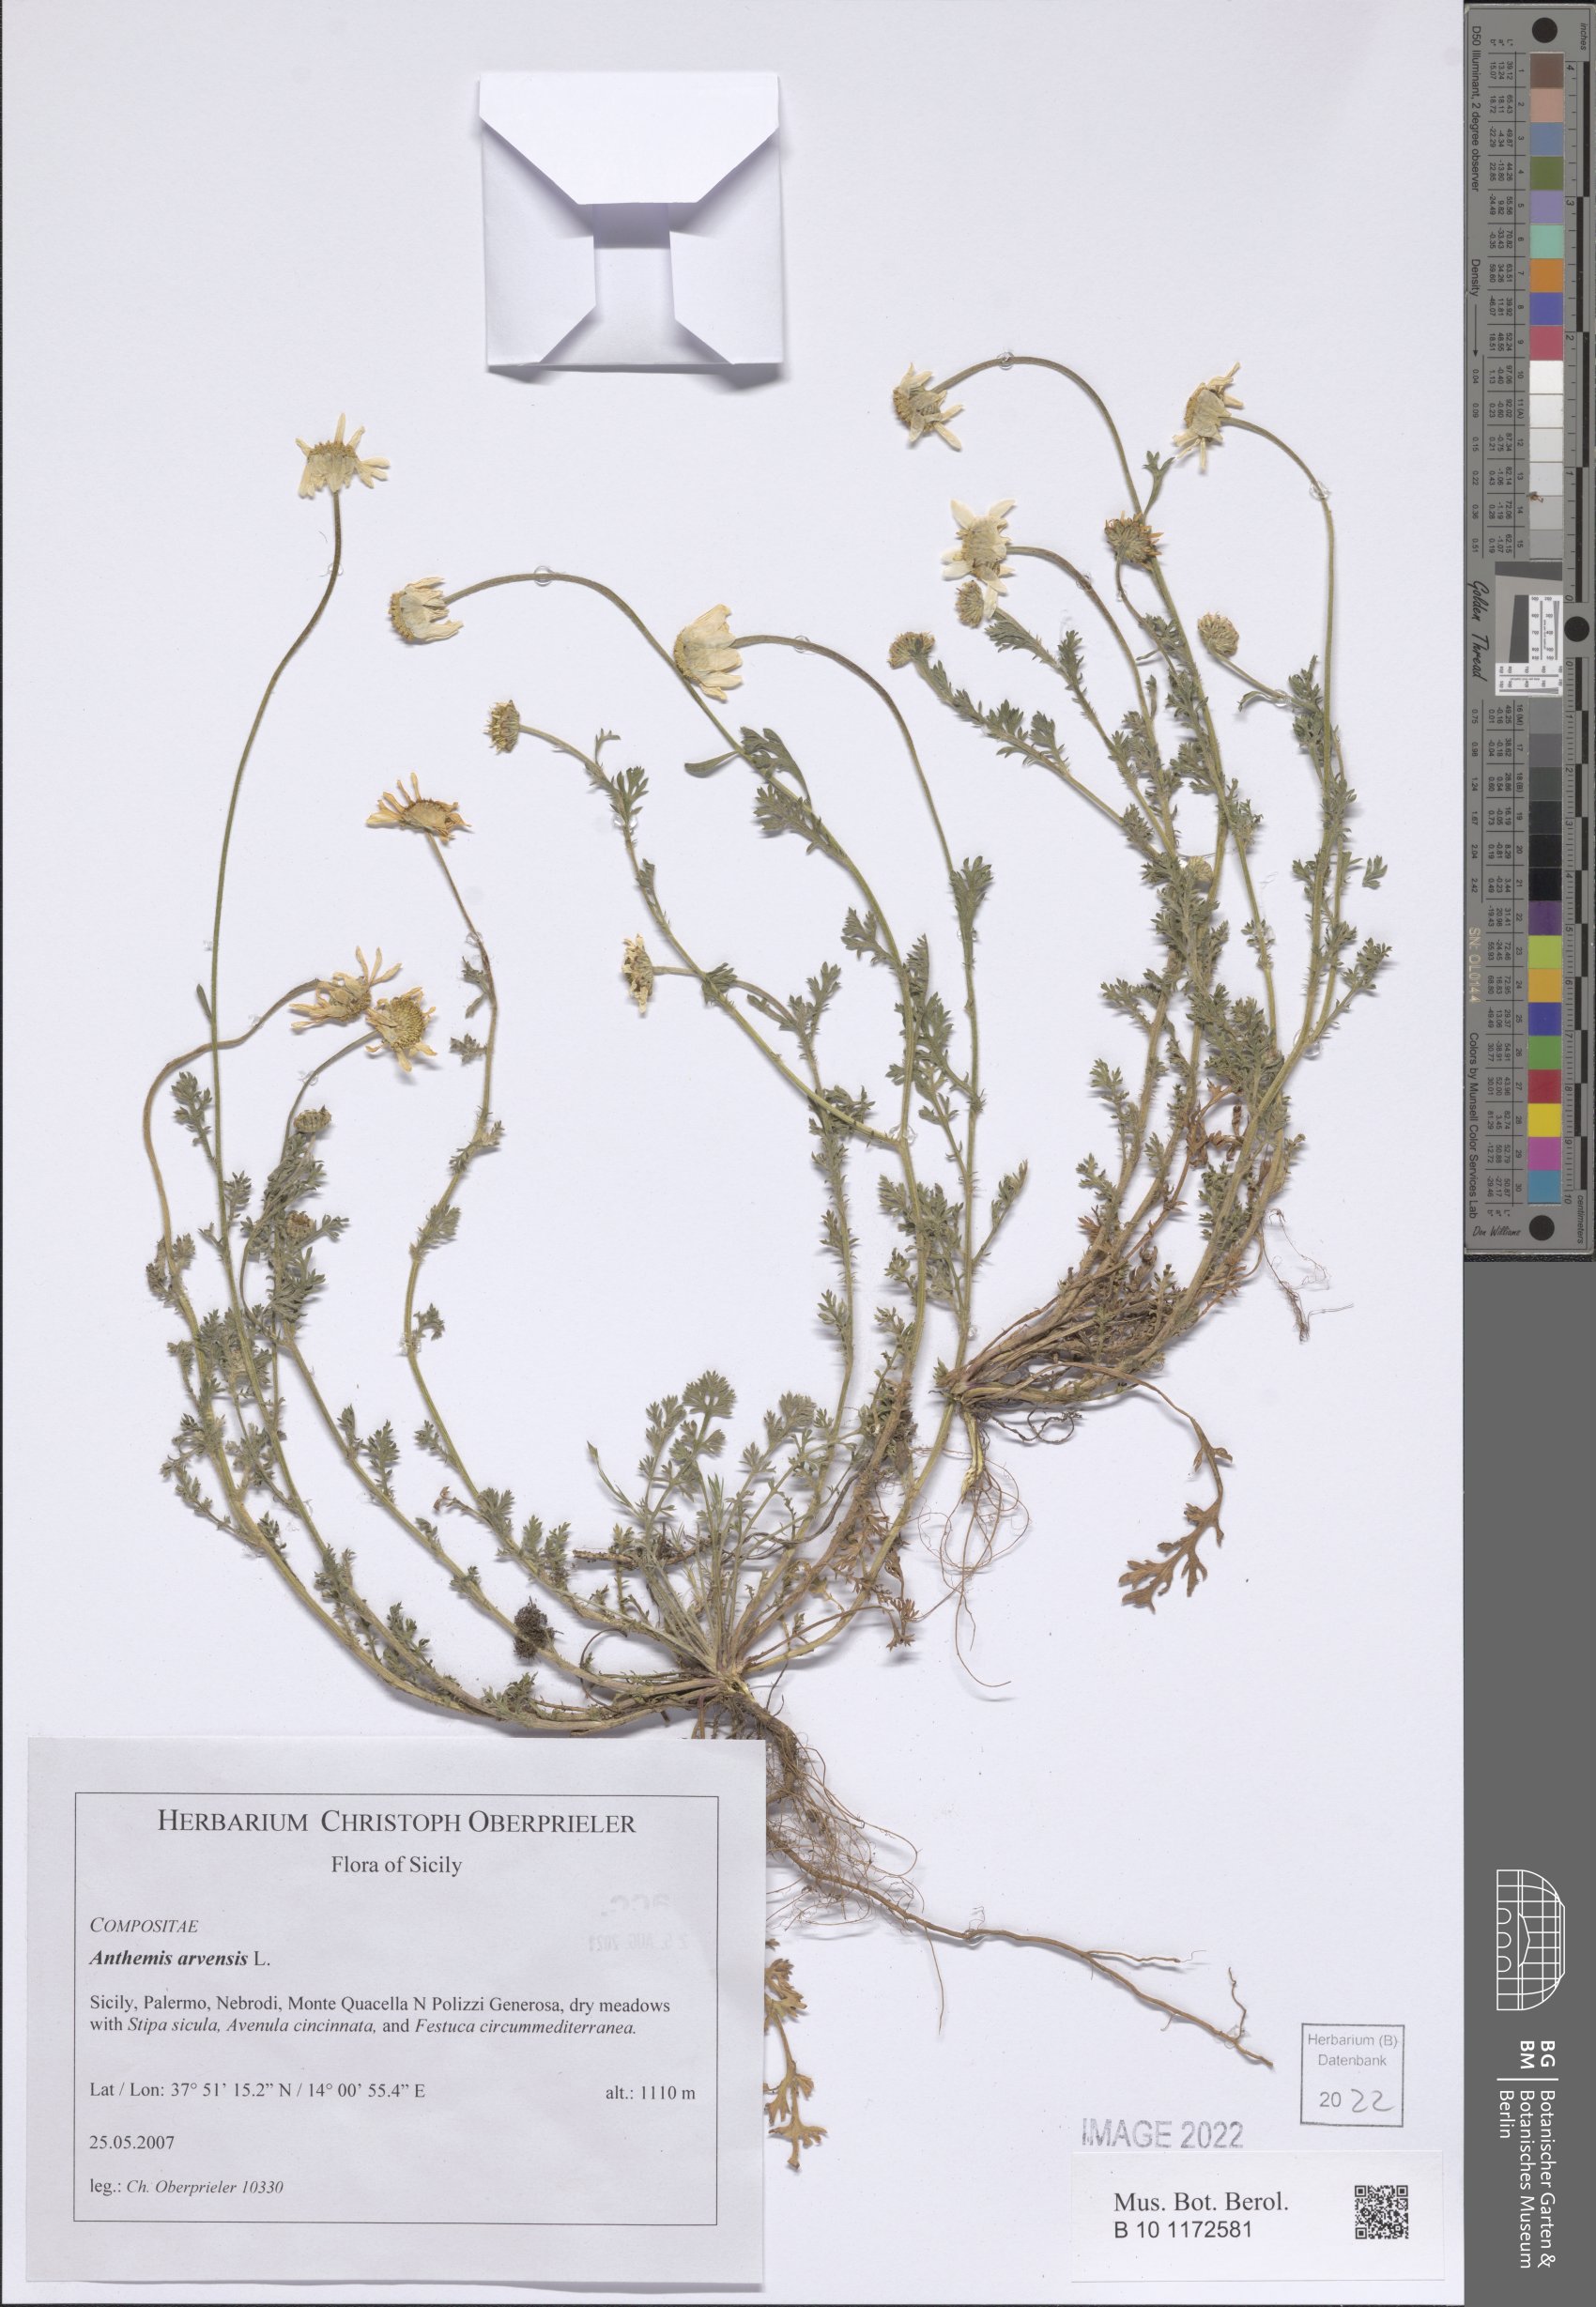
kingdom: Plantae
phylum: Tracheophyta
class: Magnoliopsida
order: Asterales
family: Asteraceae
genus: Anthemis
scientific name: Anthemis arvensis
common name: Corn chamomile
